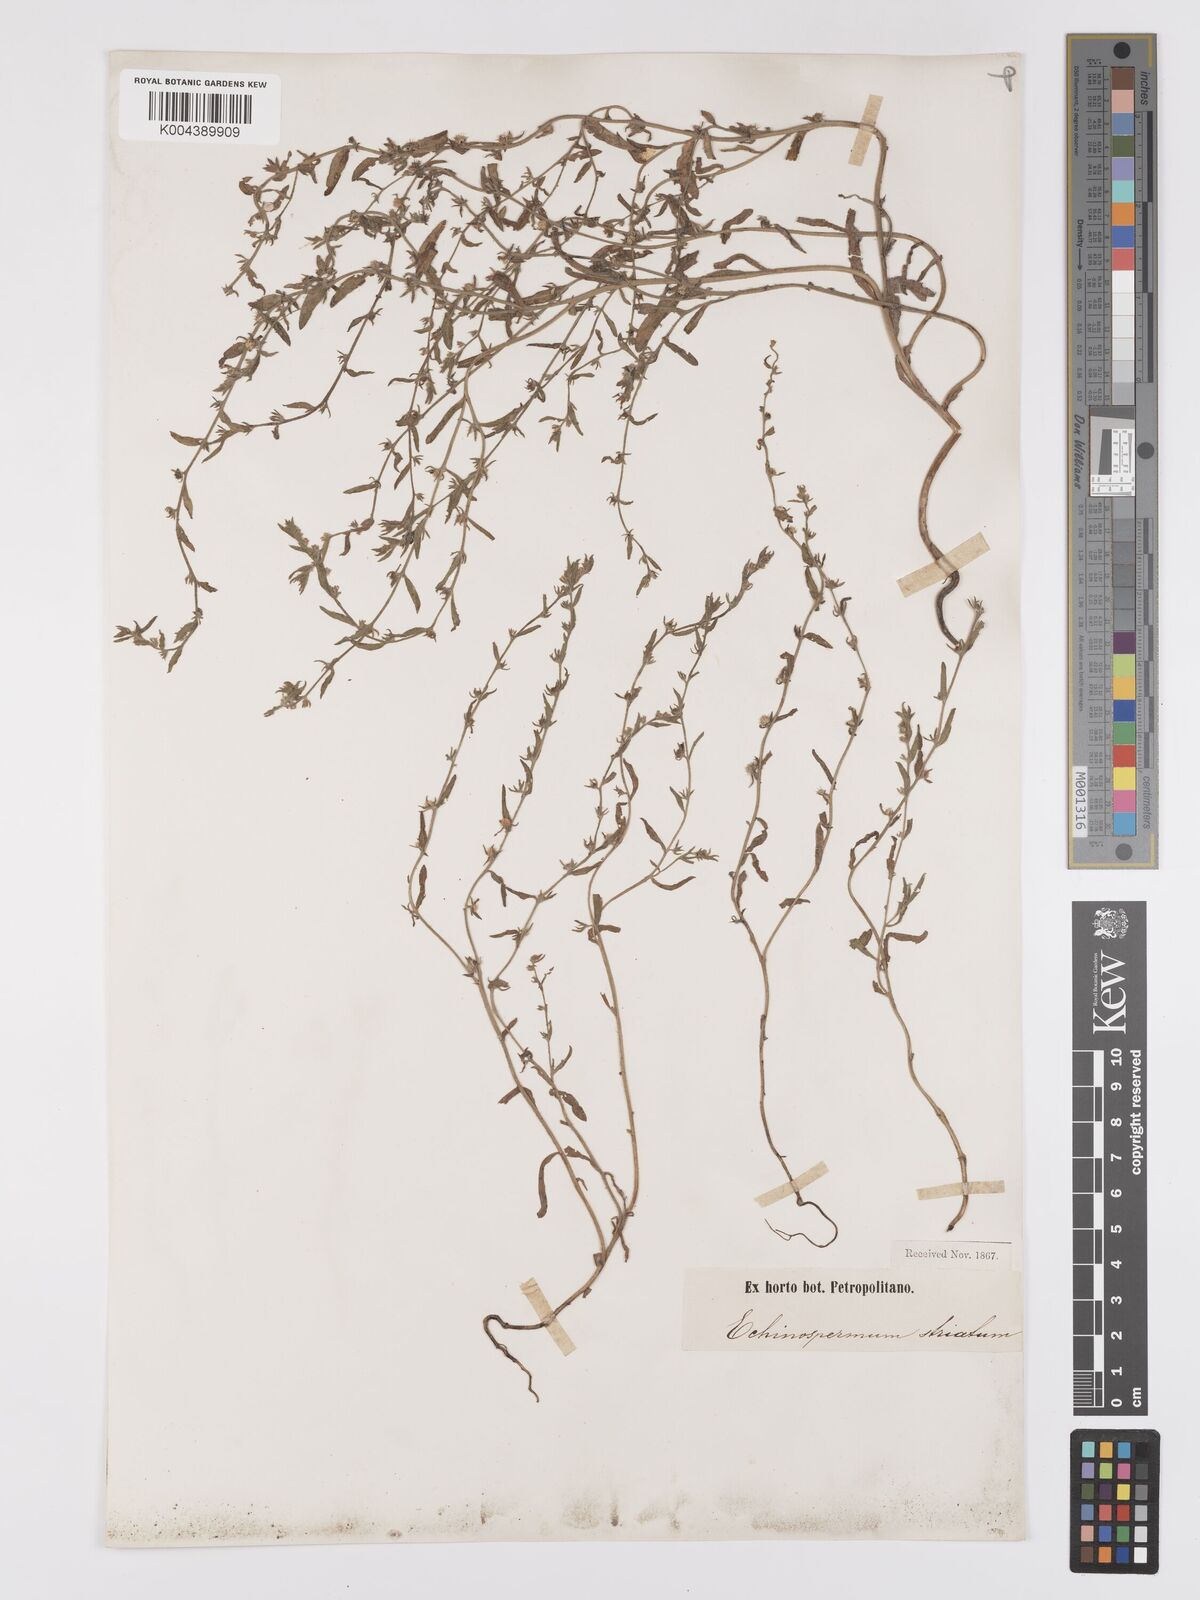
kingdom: Plantae
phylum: Tracheophyta
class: Magnoliopsida
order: Boraginales
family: Boraginaceae
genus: Lappula
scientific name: Lappula stricta
